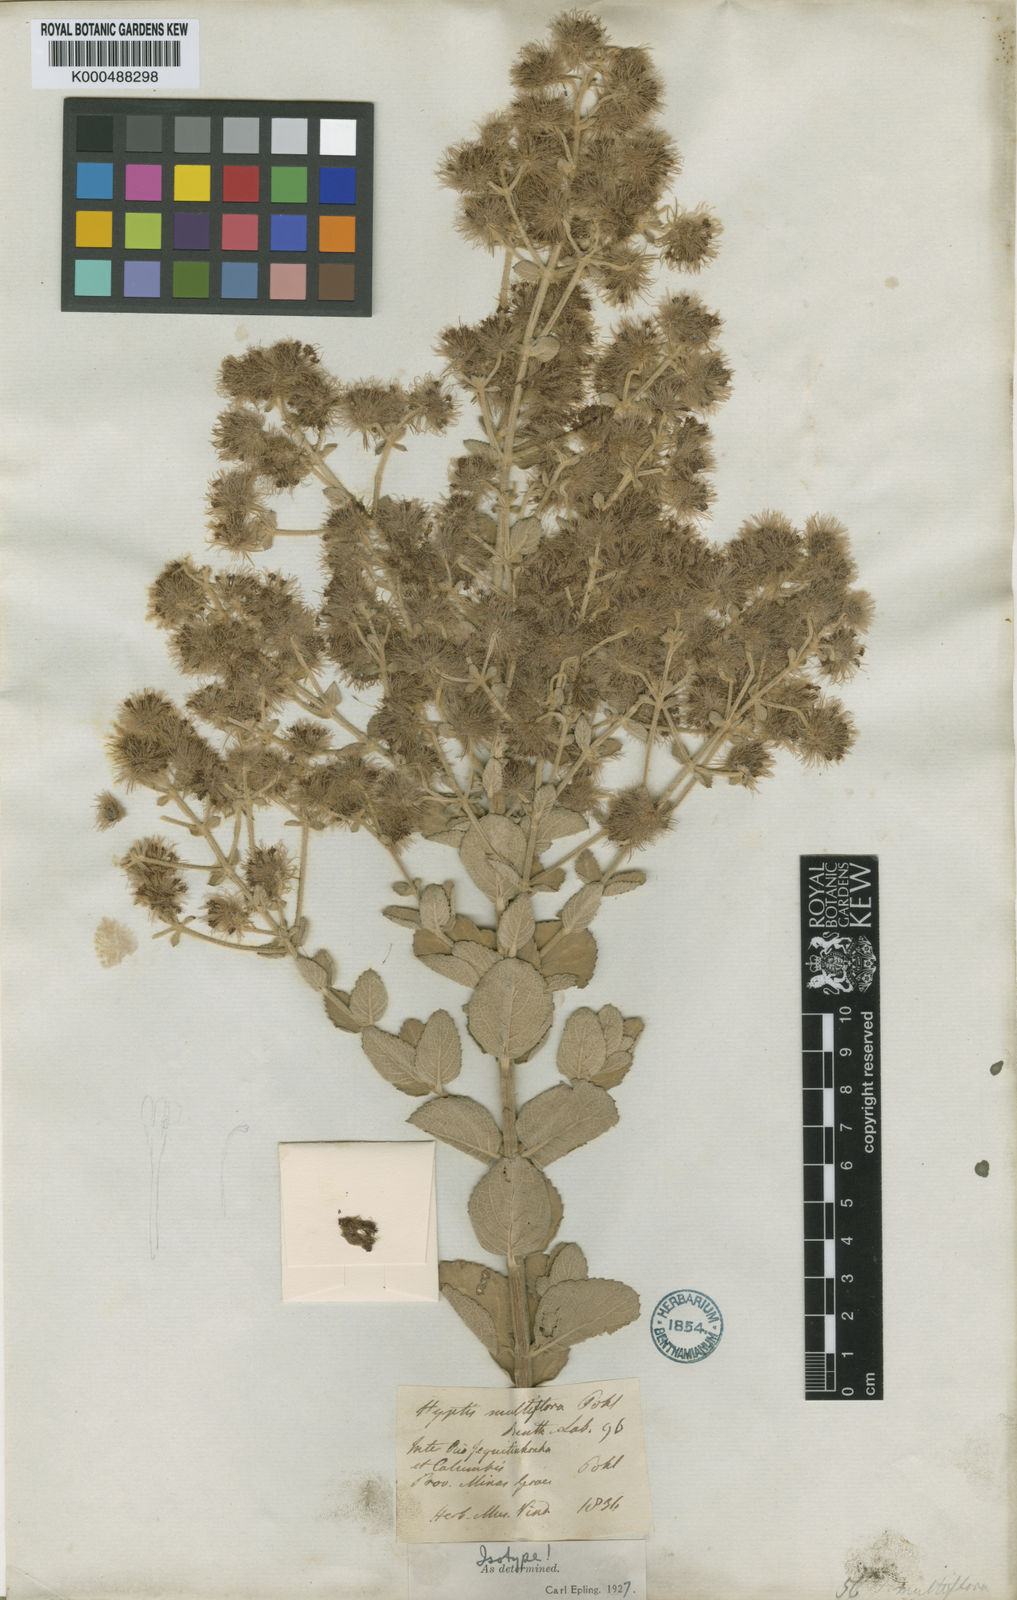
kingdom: Plantae
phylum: Tracheophyta
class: Magnoliopsida
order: Lamiales
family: Lamiaceae
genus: Medusantha
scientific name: Medusantha multiflora
